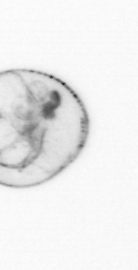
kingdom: Chromista
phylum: Myzozoa
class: Dinophyceae
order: Noctilucales
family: Noctilucaceae
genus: Noctiluca
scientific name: Noctiluca scintillans
